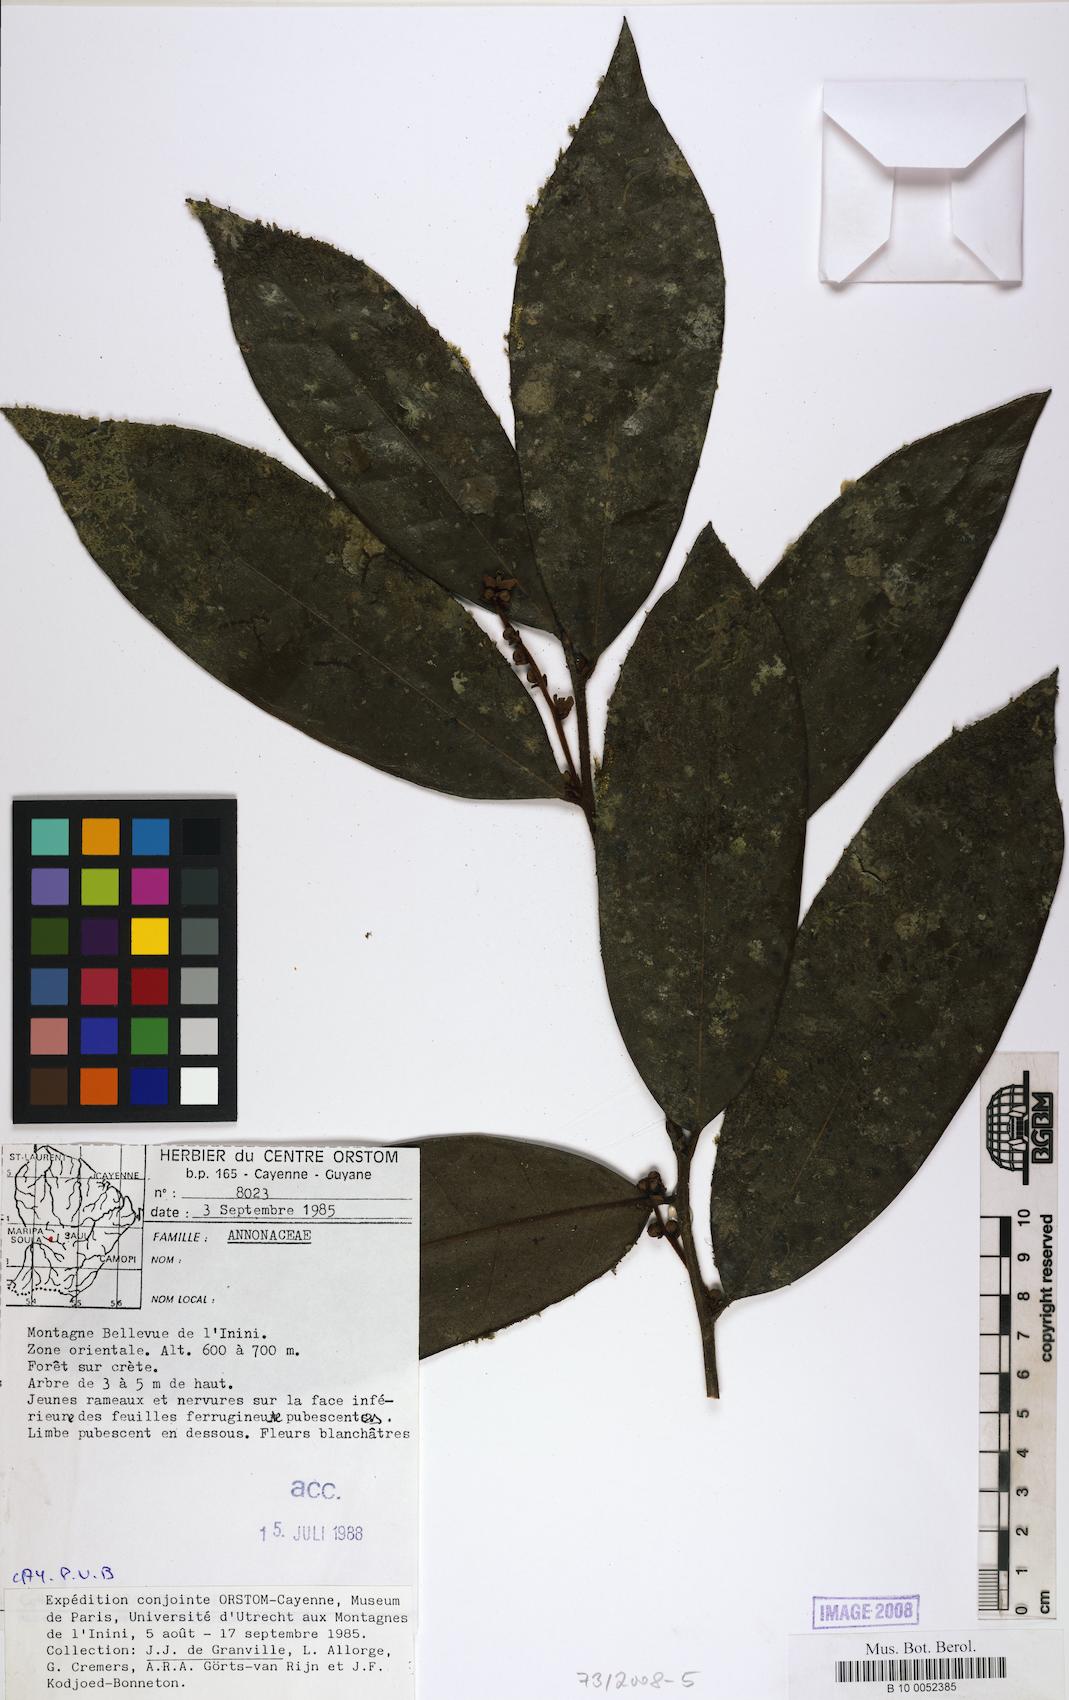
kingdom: Plantae
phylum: Tracheophyta
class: Magnoliopsida
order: Laurales
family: Lauraceae
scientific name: Lauraceae
